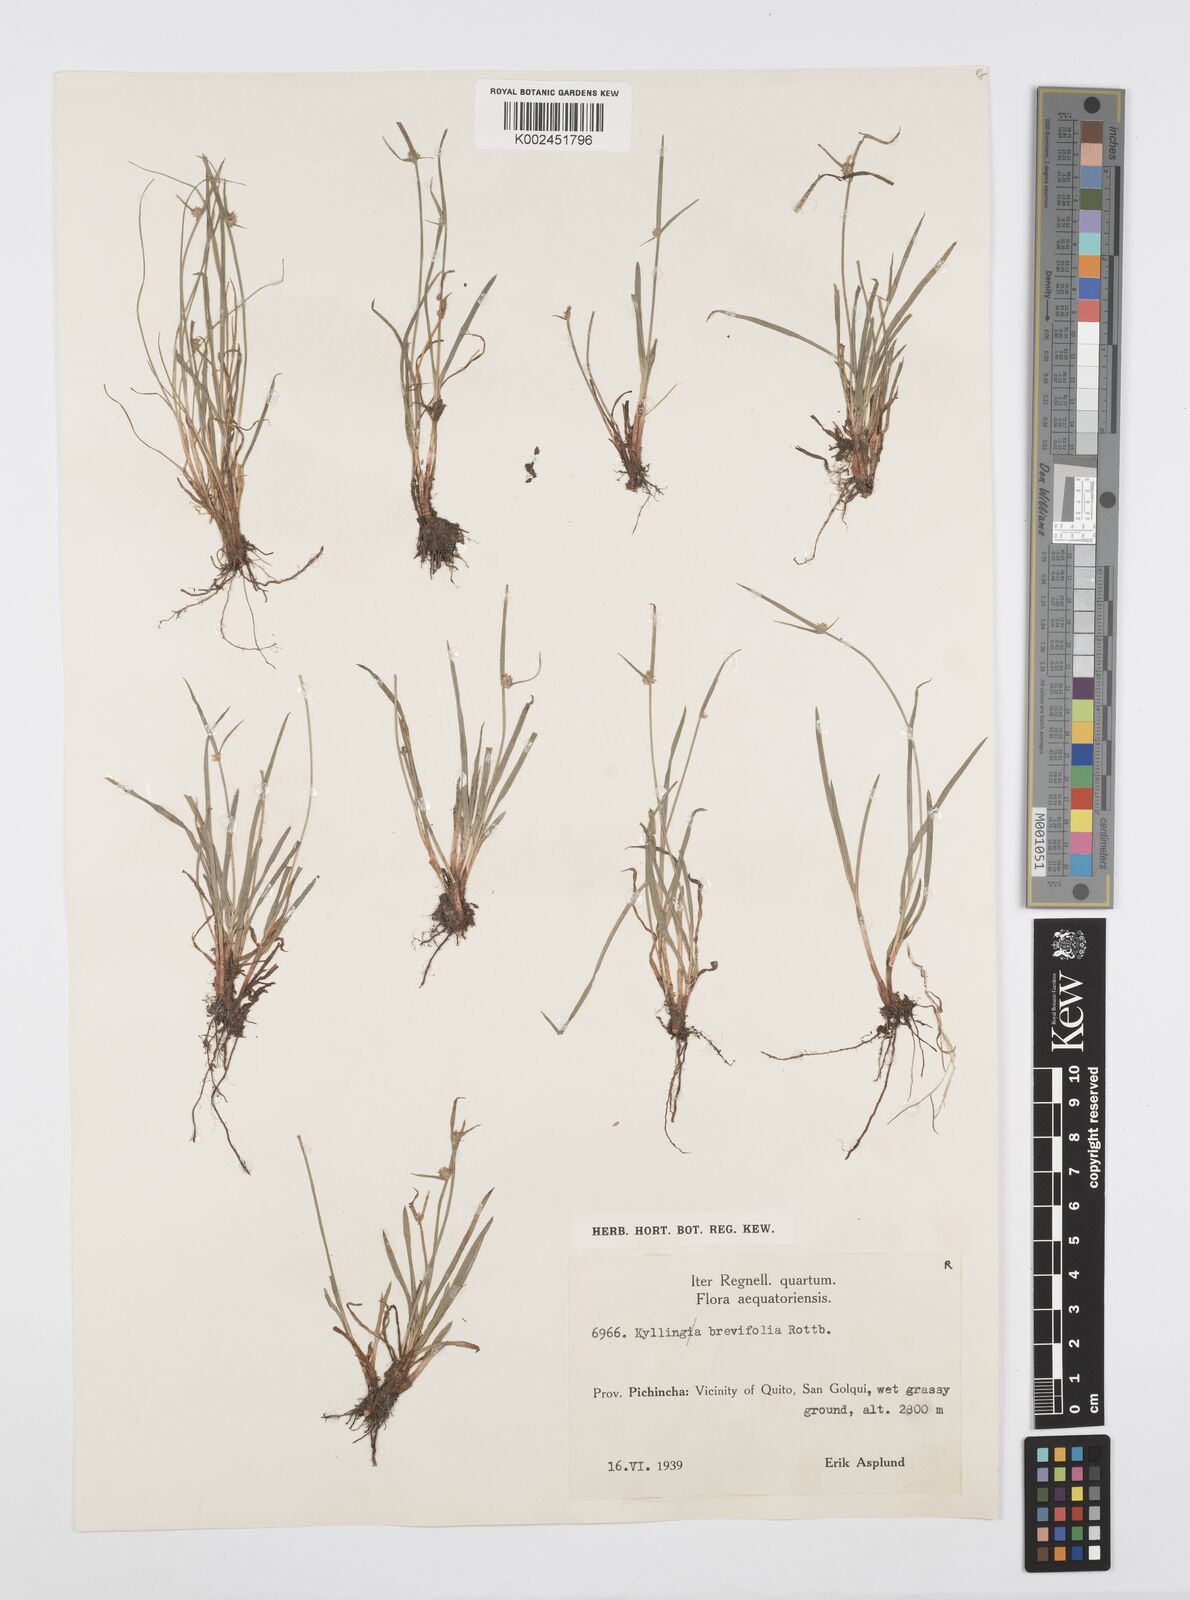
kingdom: Plantae
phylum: Tracheophyta
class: Liliopsida
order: Poales
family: Cyperaceae
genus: Cyperus
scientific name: Cyperus brevifolius
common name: Globe kyllinga
